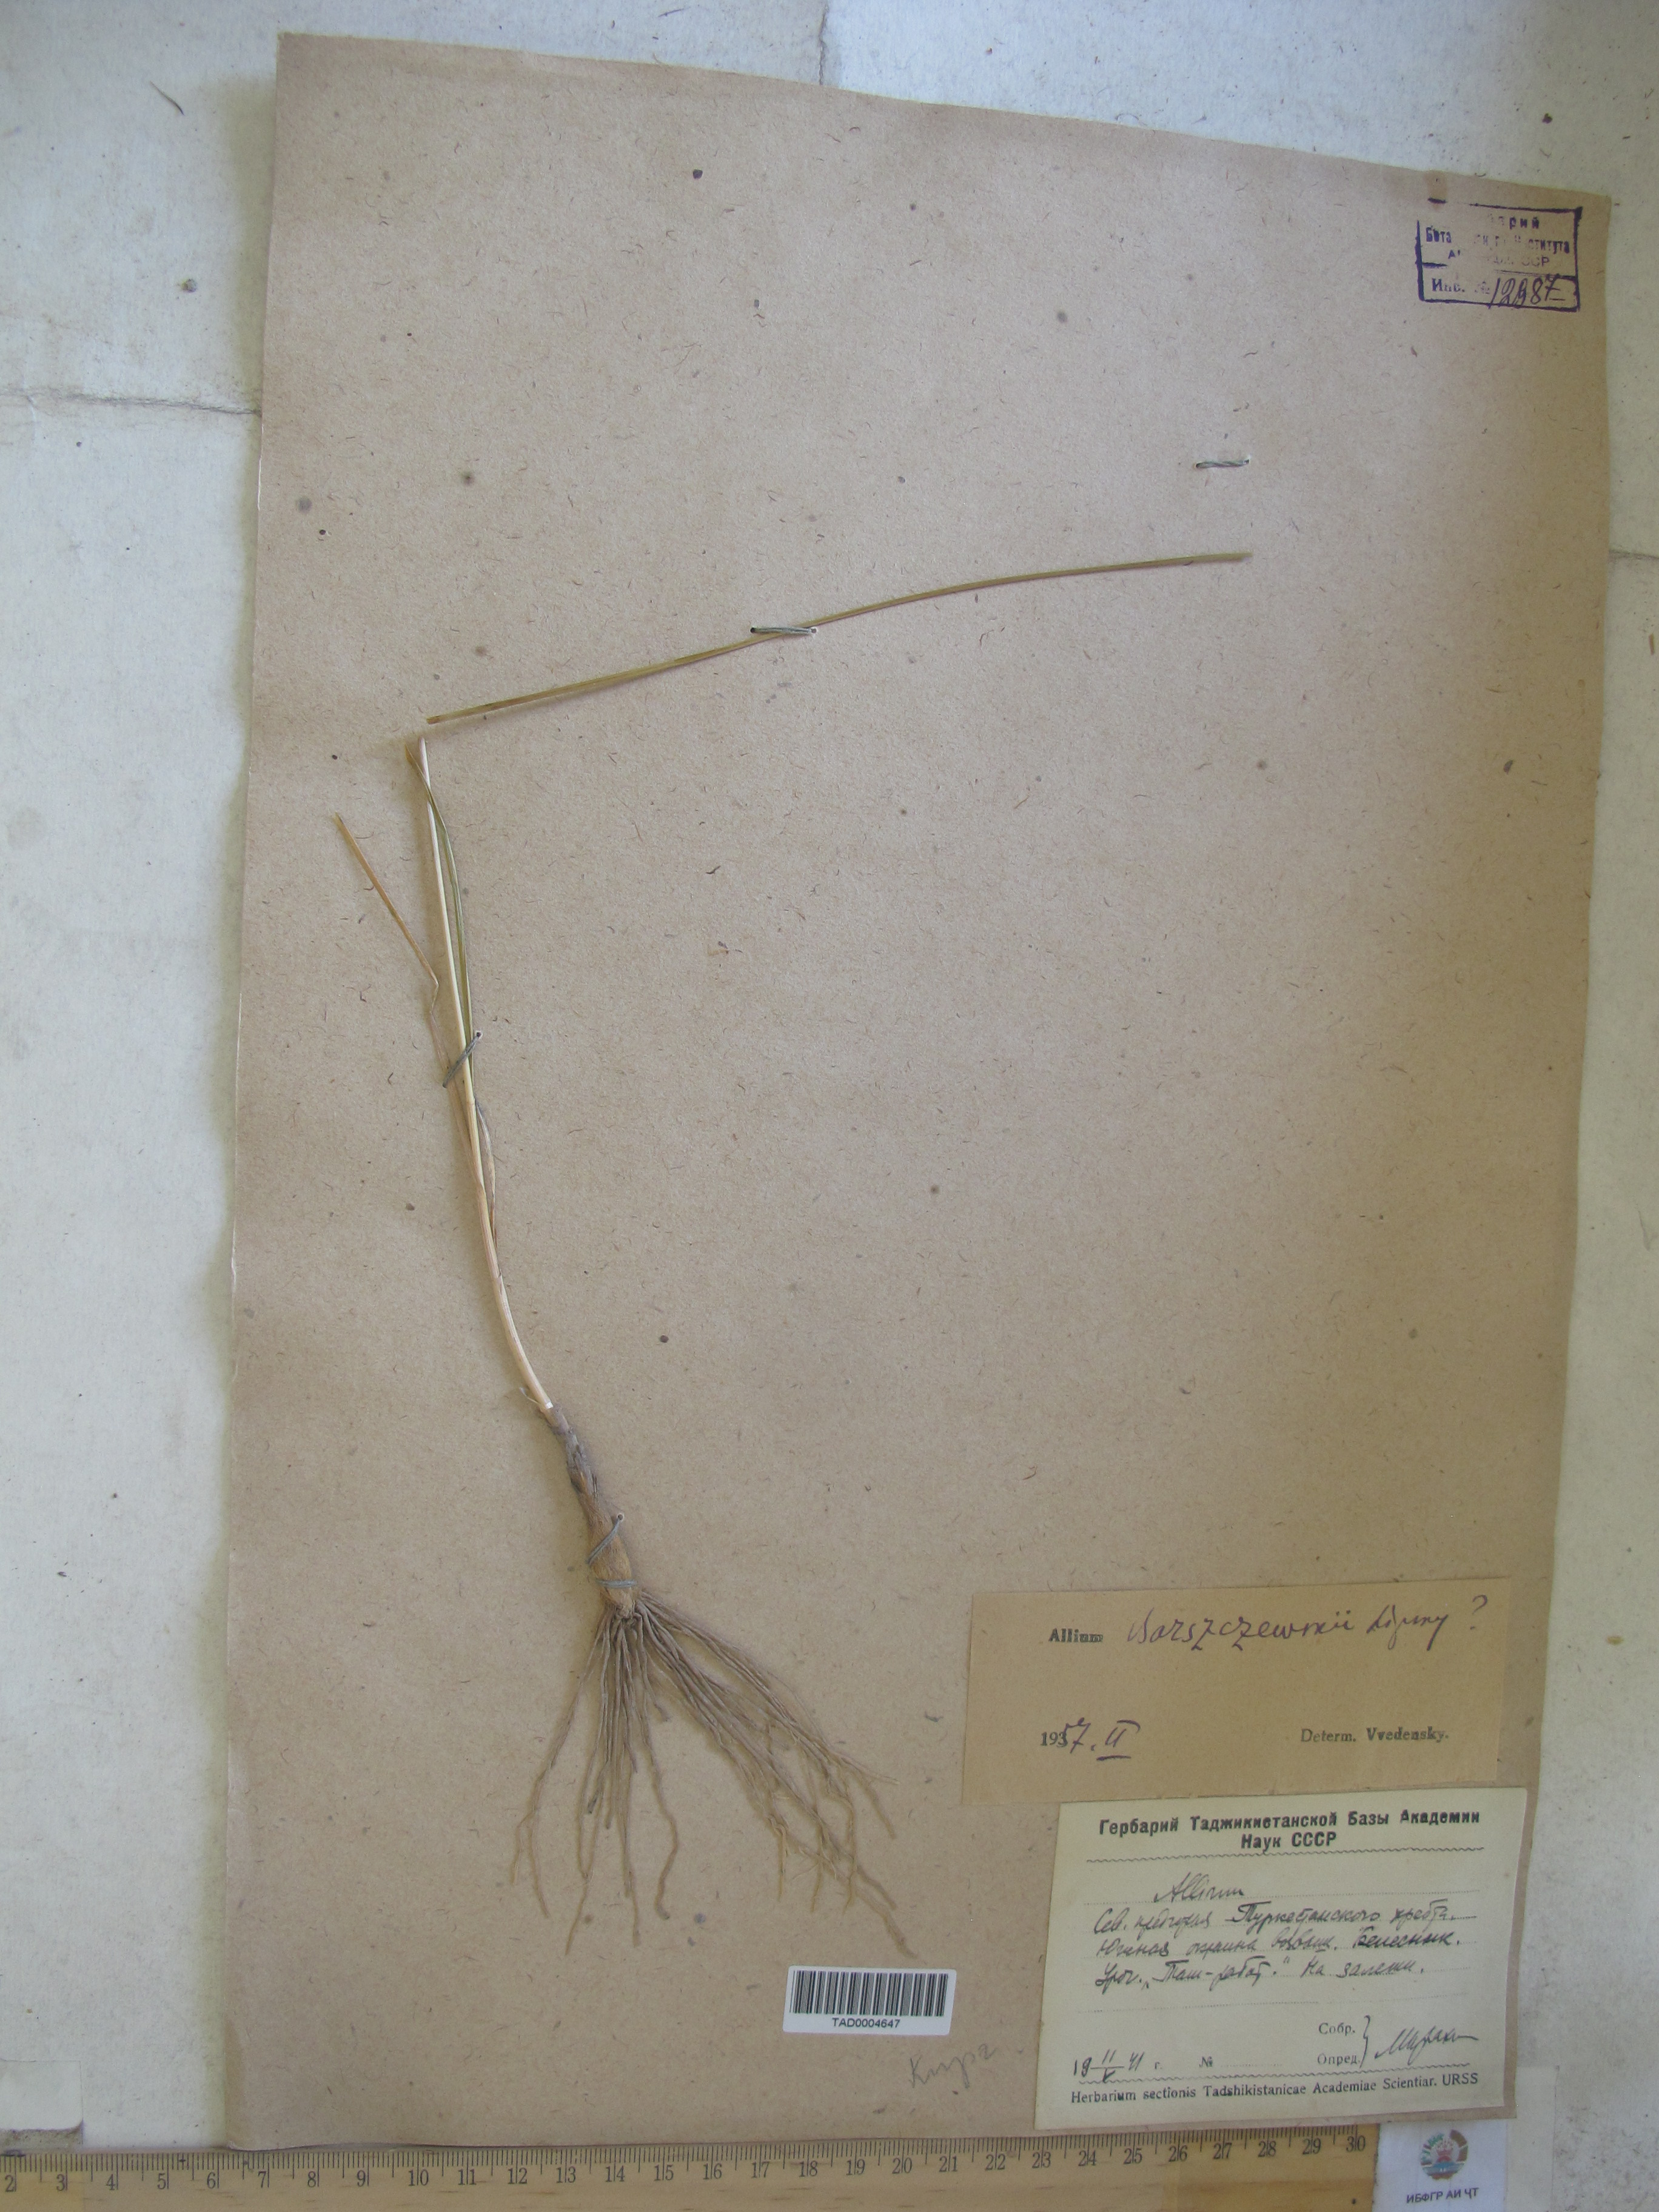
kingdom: Plantae
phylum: Tracheophyta
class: Liliopsida
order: Asparagales
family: Amaryllidaceae
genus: Allium
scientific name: Allium barsczewskii
